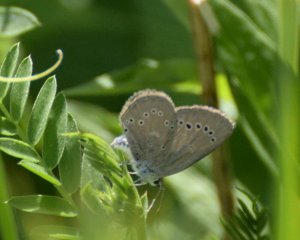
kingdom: Animalia
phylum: Arthropoda
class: Insecta
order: Lepidoptera
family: Lycaenidae
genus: Glaucopsyche
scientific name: Glaucopsyche lygdamus
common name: Silvery Blue
